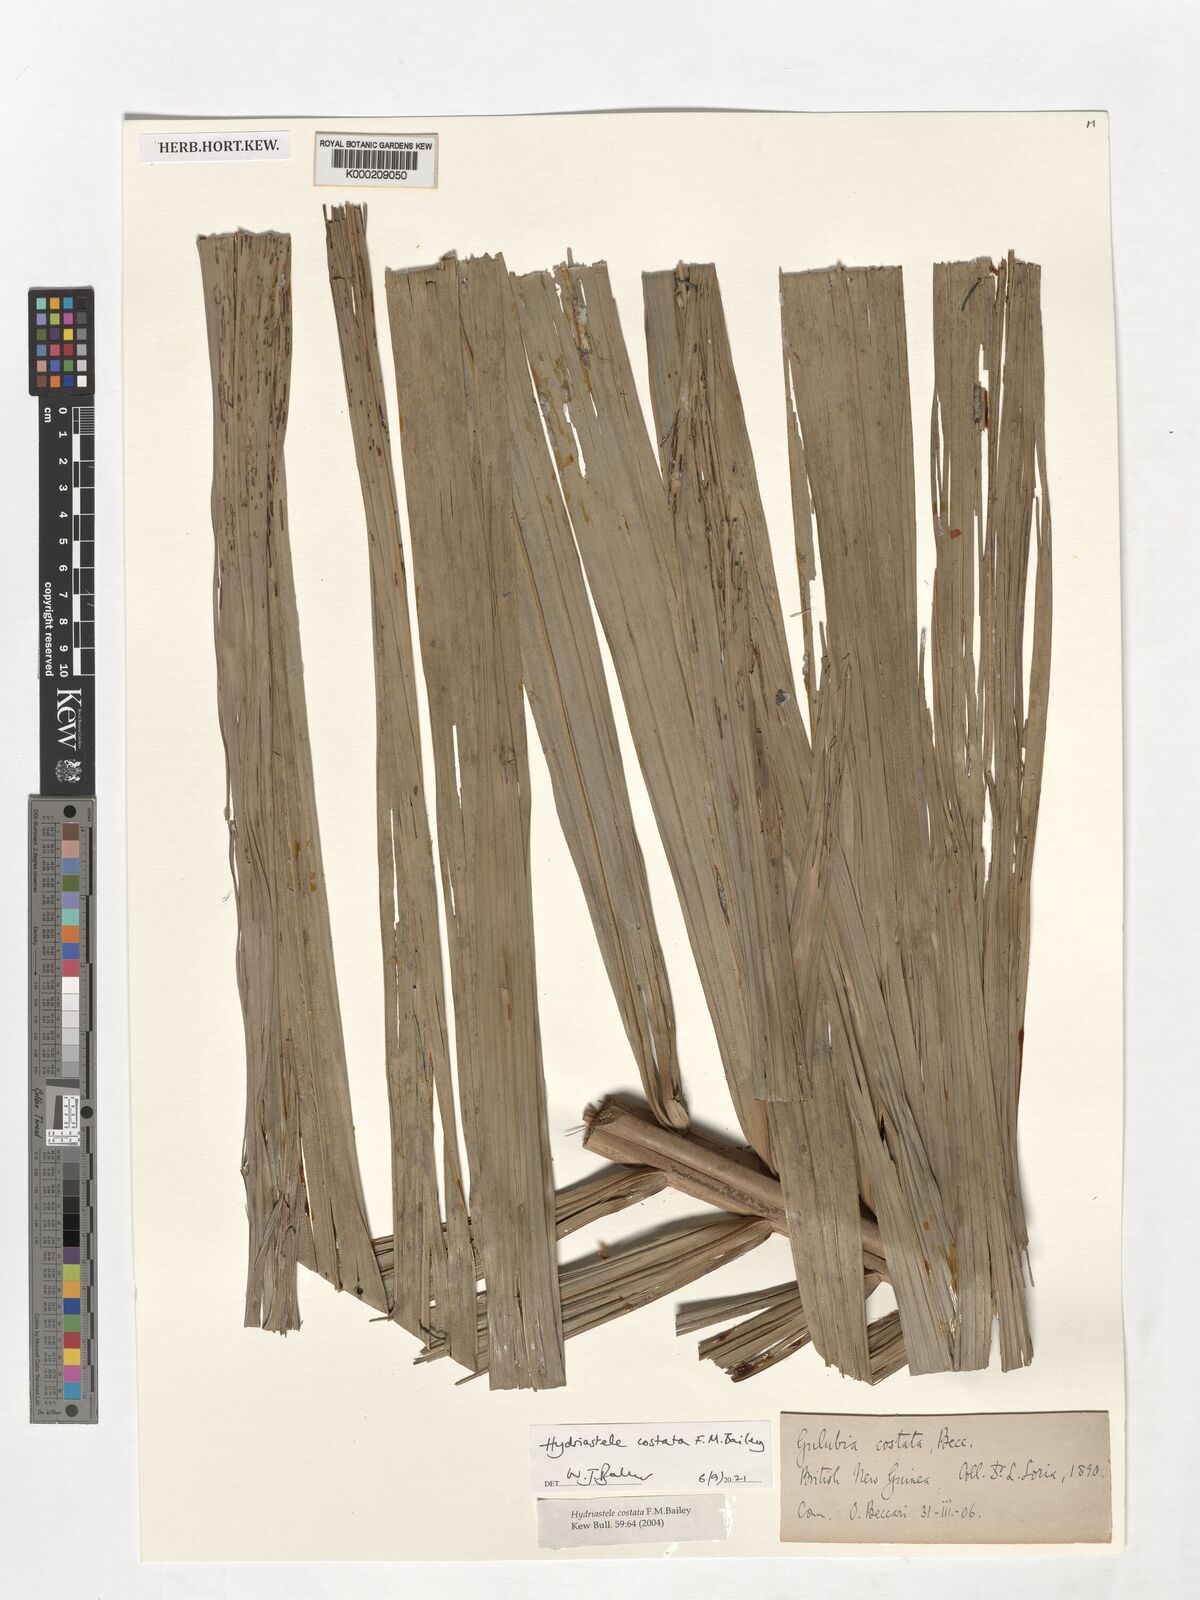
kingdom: Plantae
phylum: Tracheophyta
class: Liliopsida
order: Arecales
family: Arecaceae
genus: Hydriastele
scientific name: Hydriastele costata
